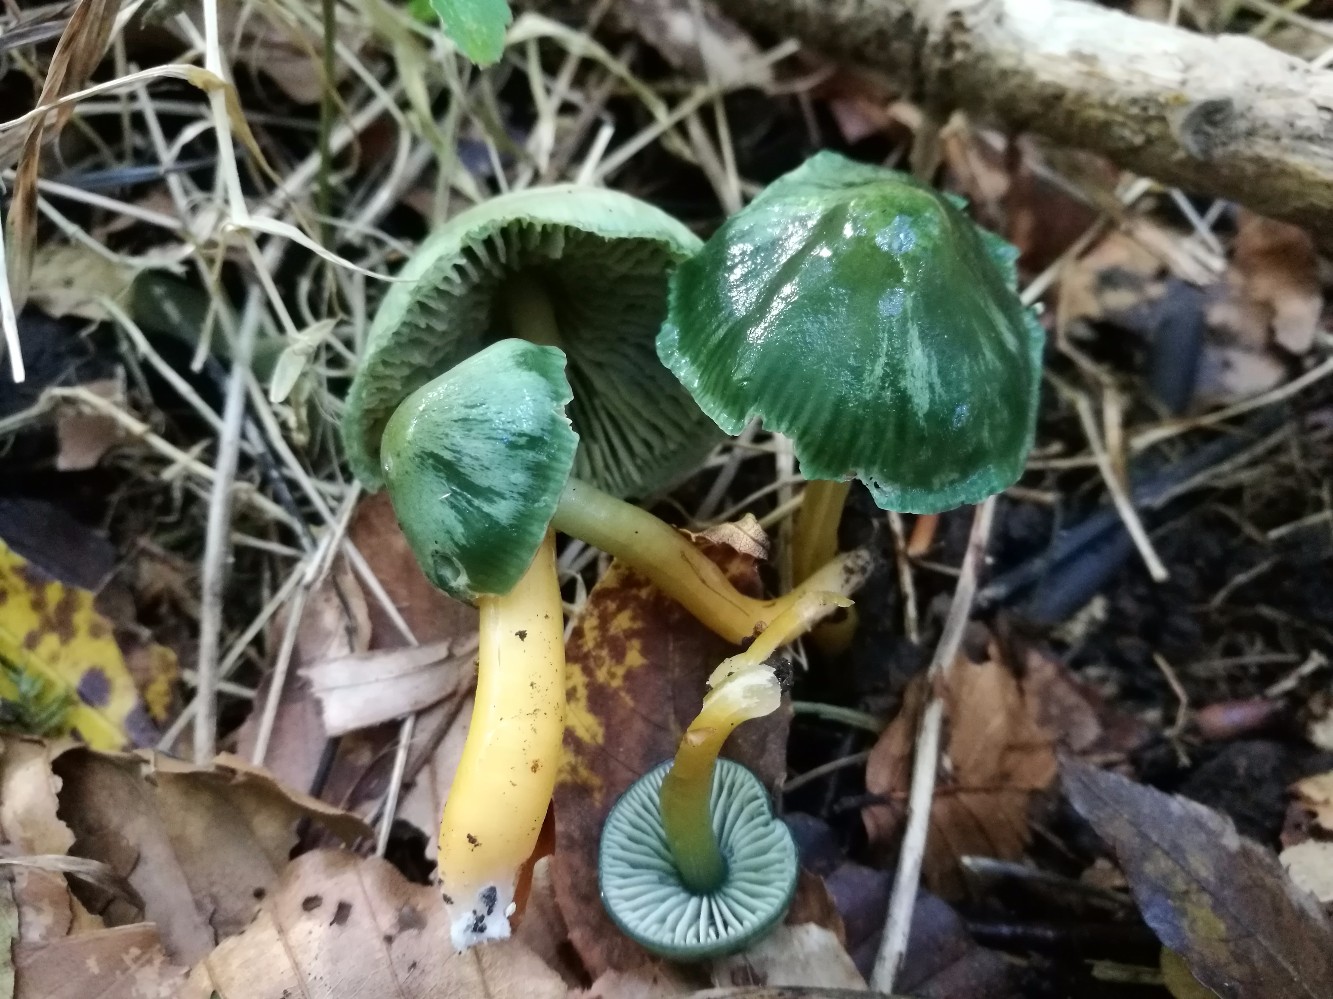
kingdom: Fungi
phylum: Basidiomycota
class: Agaricomycetes
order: Agaricales
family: Hygrophoraceae
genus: Gliophorus
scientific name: Gliophorus psittacinus
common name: papegøje-vokshat
